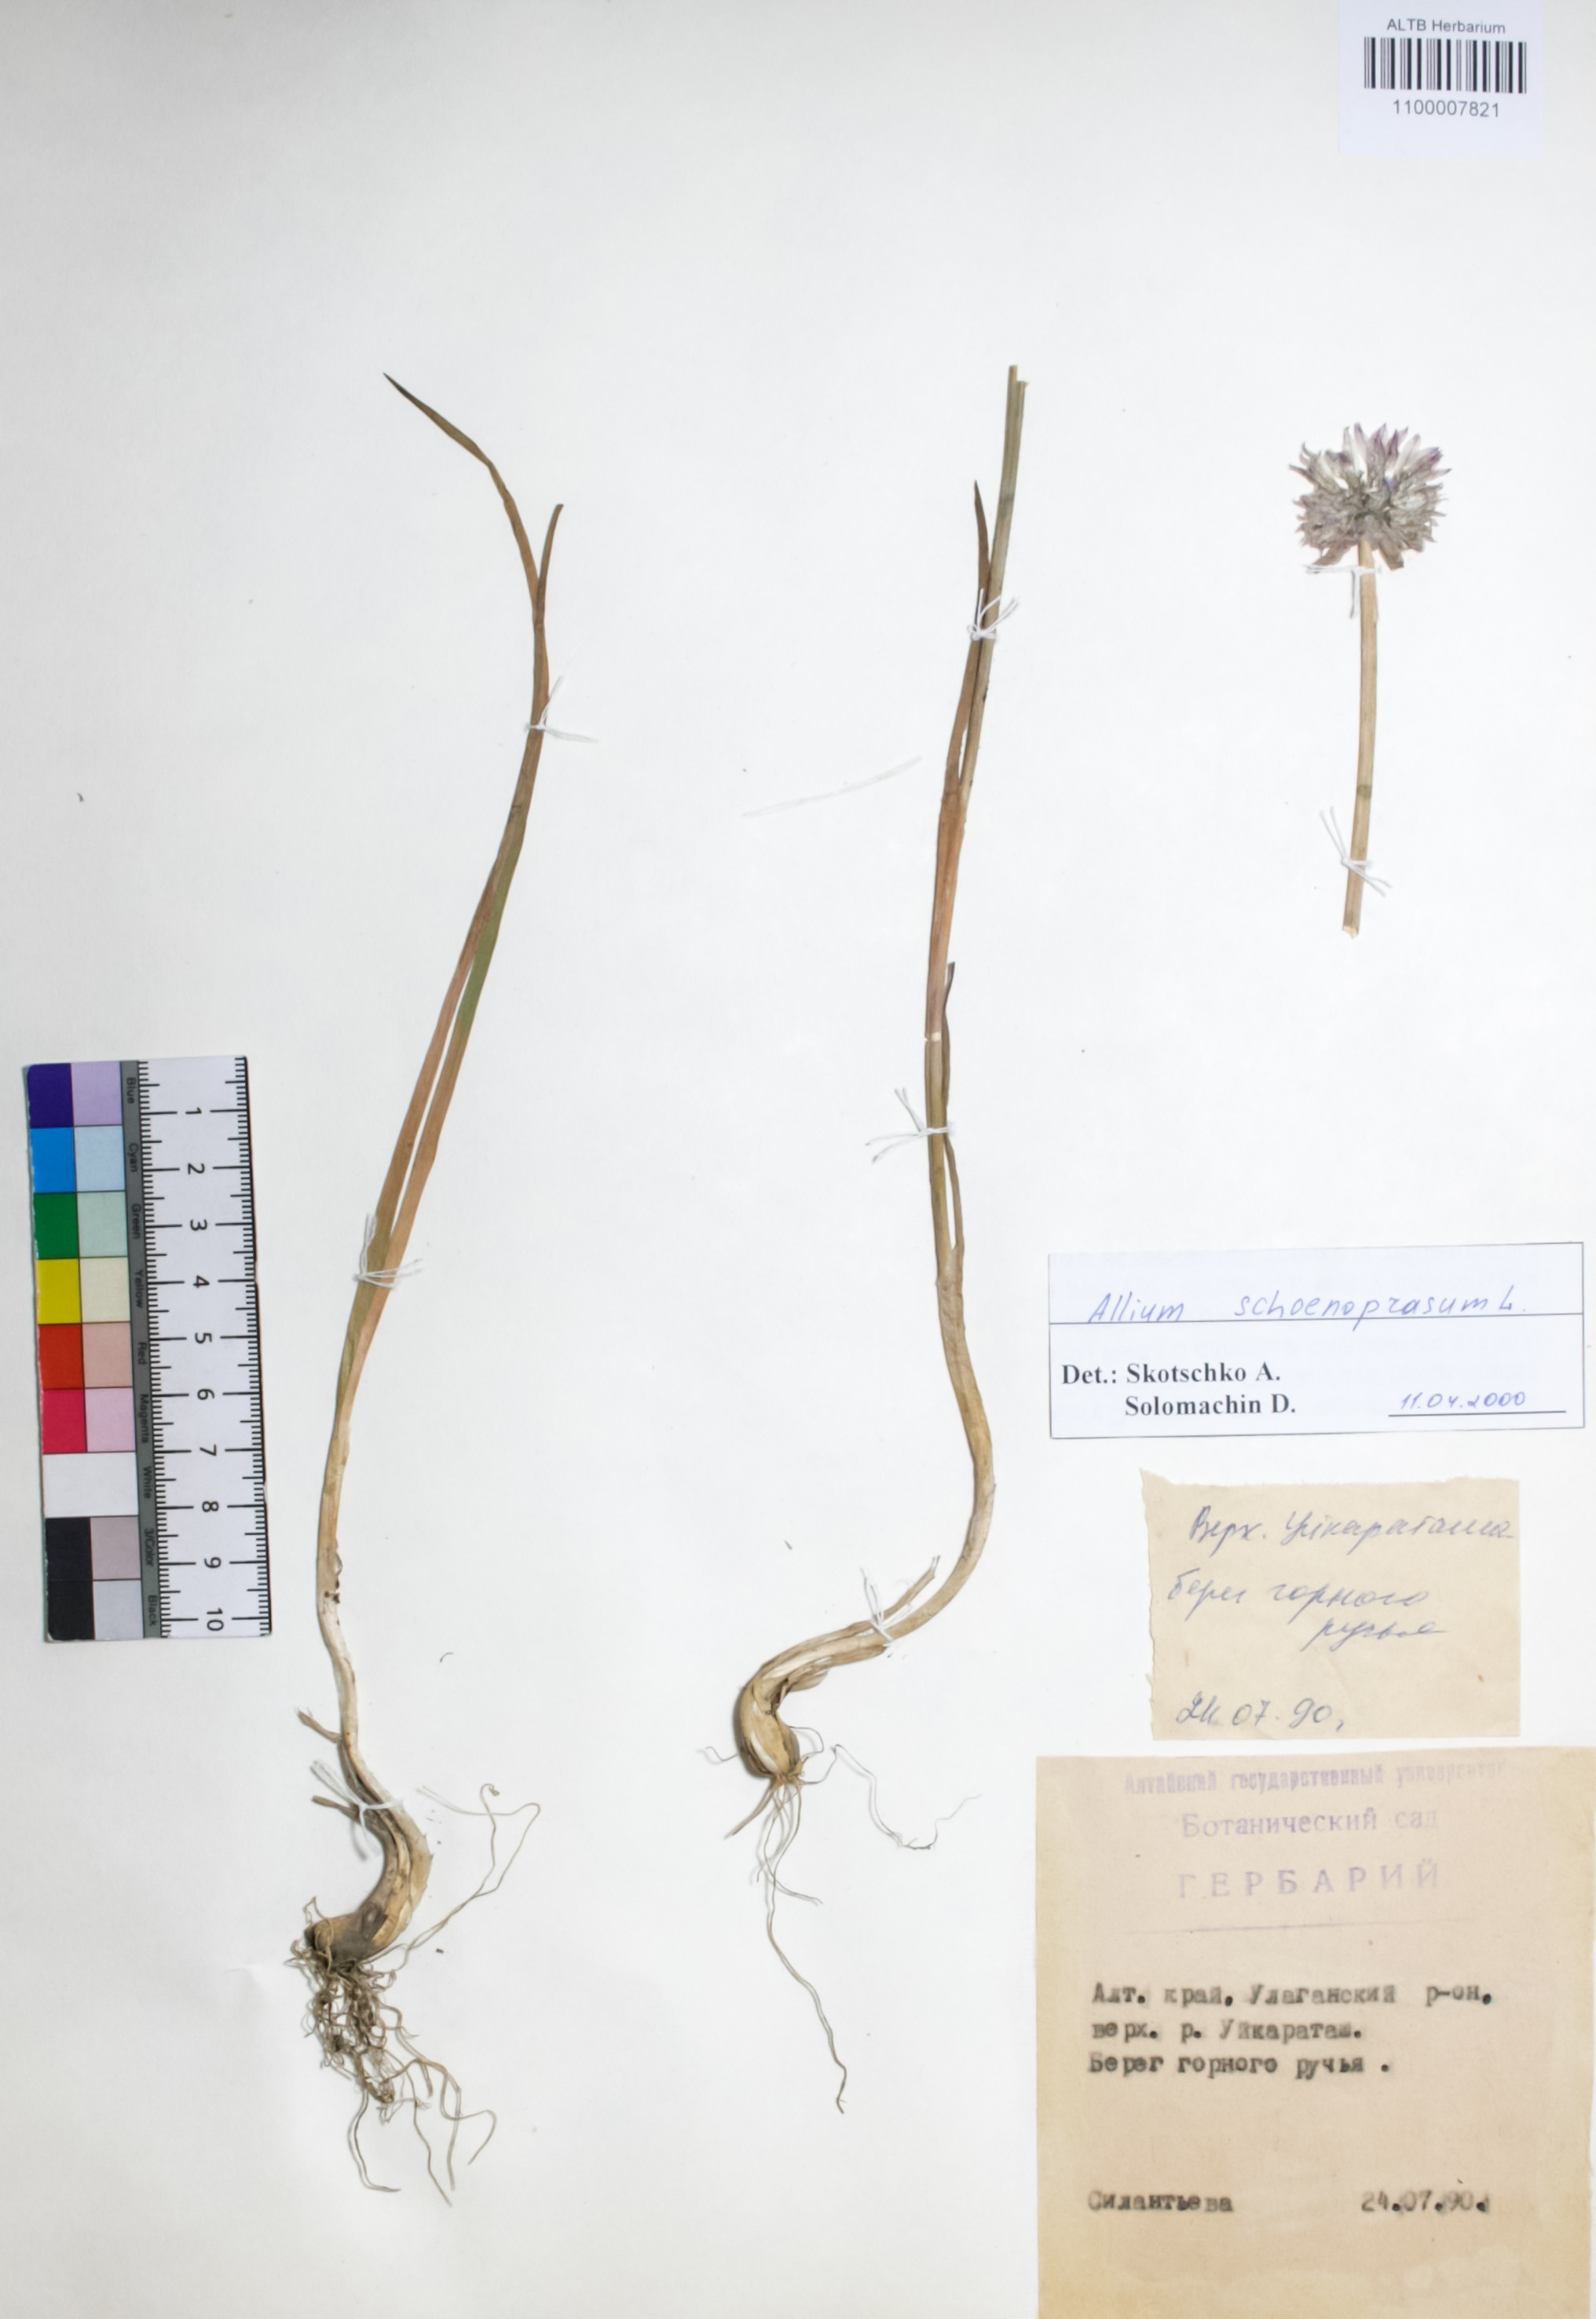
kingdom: Plantae
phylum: Tracheophyta
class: Liliopsida
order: Asparagales
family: Amaryllidaceae
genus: Allium
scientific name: Allium schoenoprasum
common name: Chives
